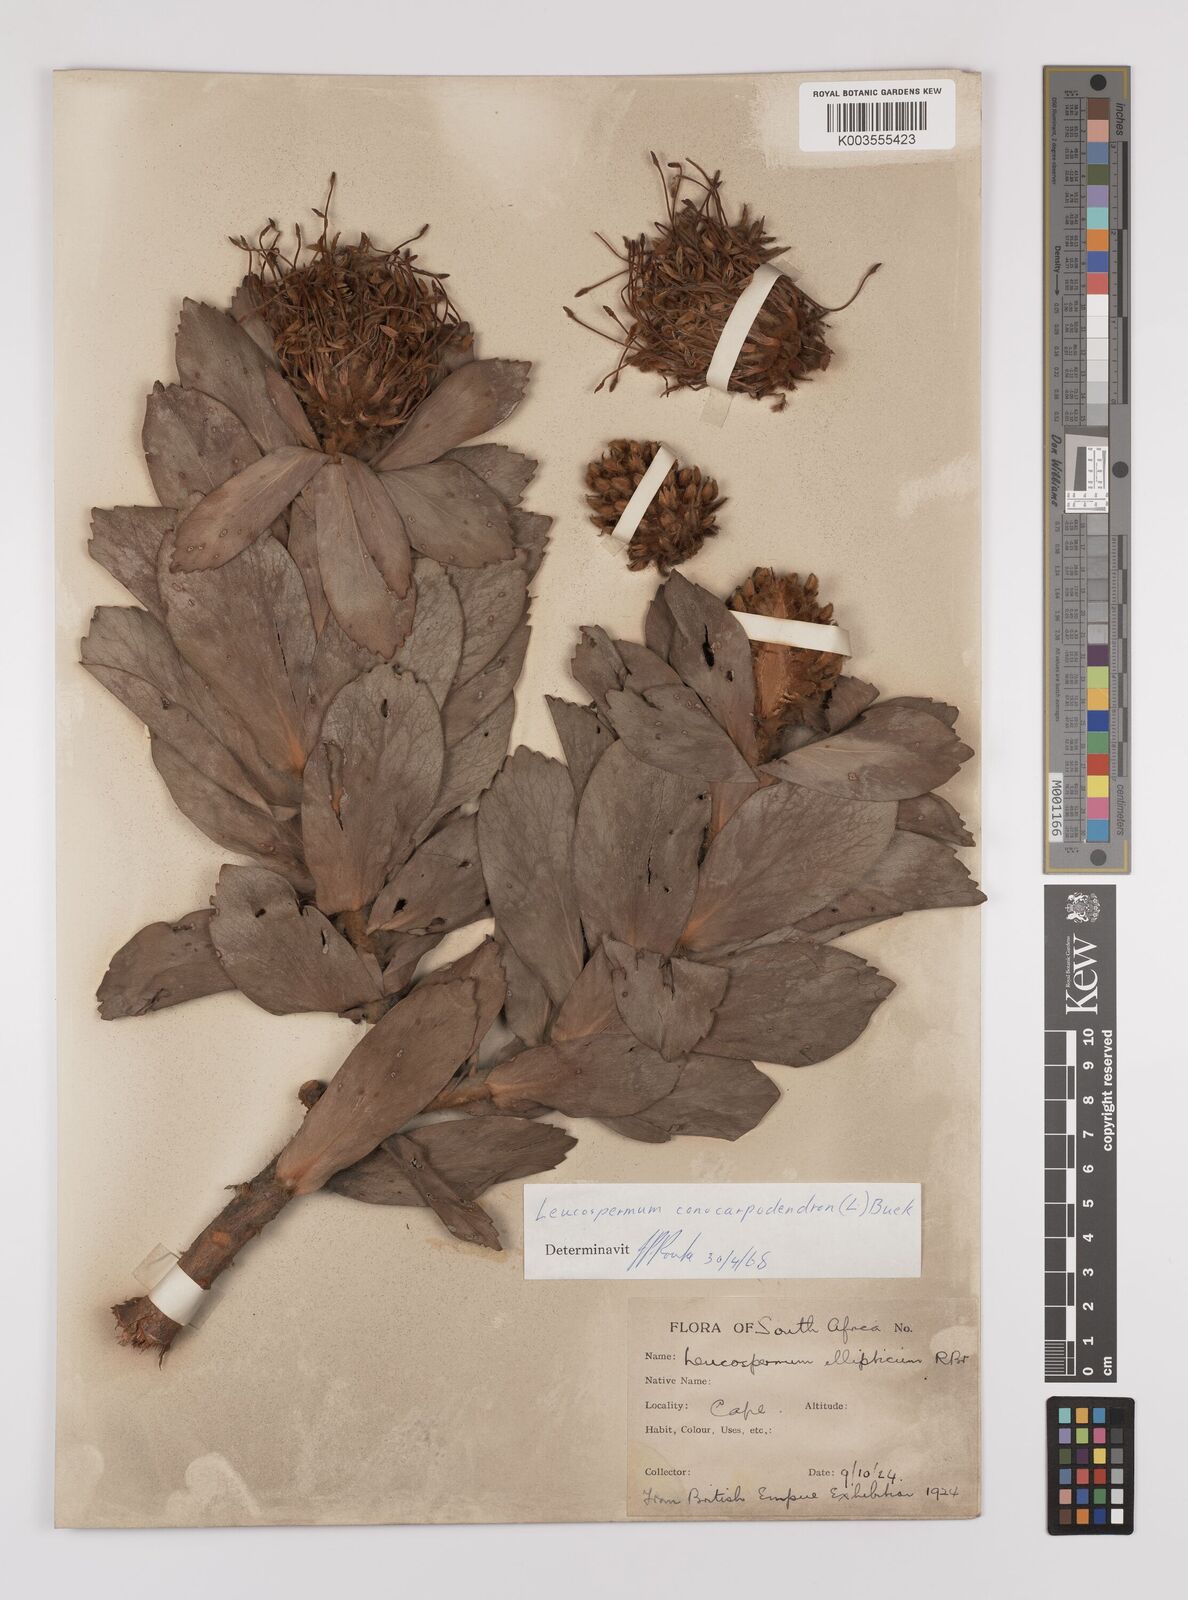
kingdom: Plantae
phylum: Tracheophyta
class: Magnoliopsida
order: Proteales
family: Proteaceae
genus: Leucospermum
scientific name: Leucospermum conocarpodendron
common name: Tree pincushion
